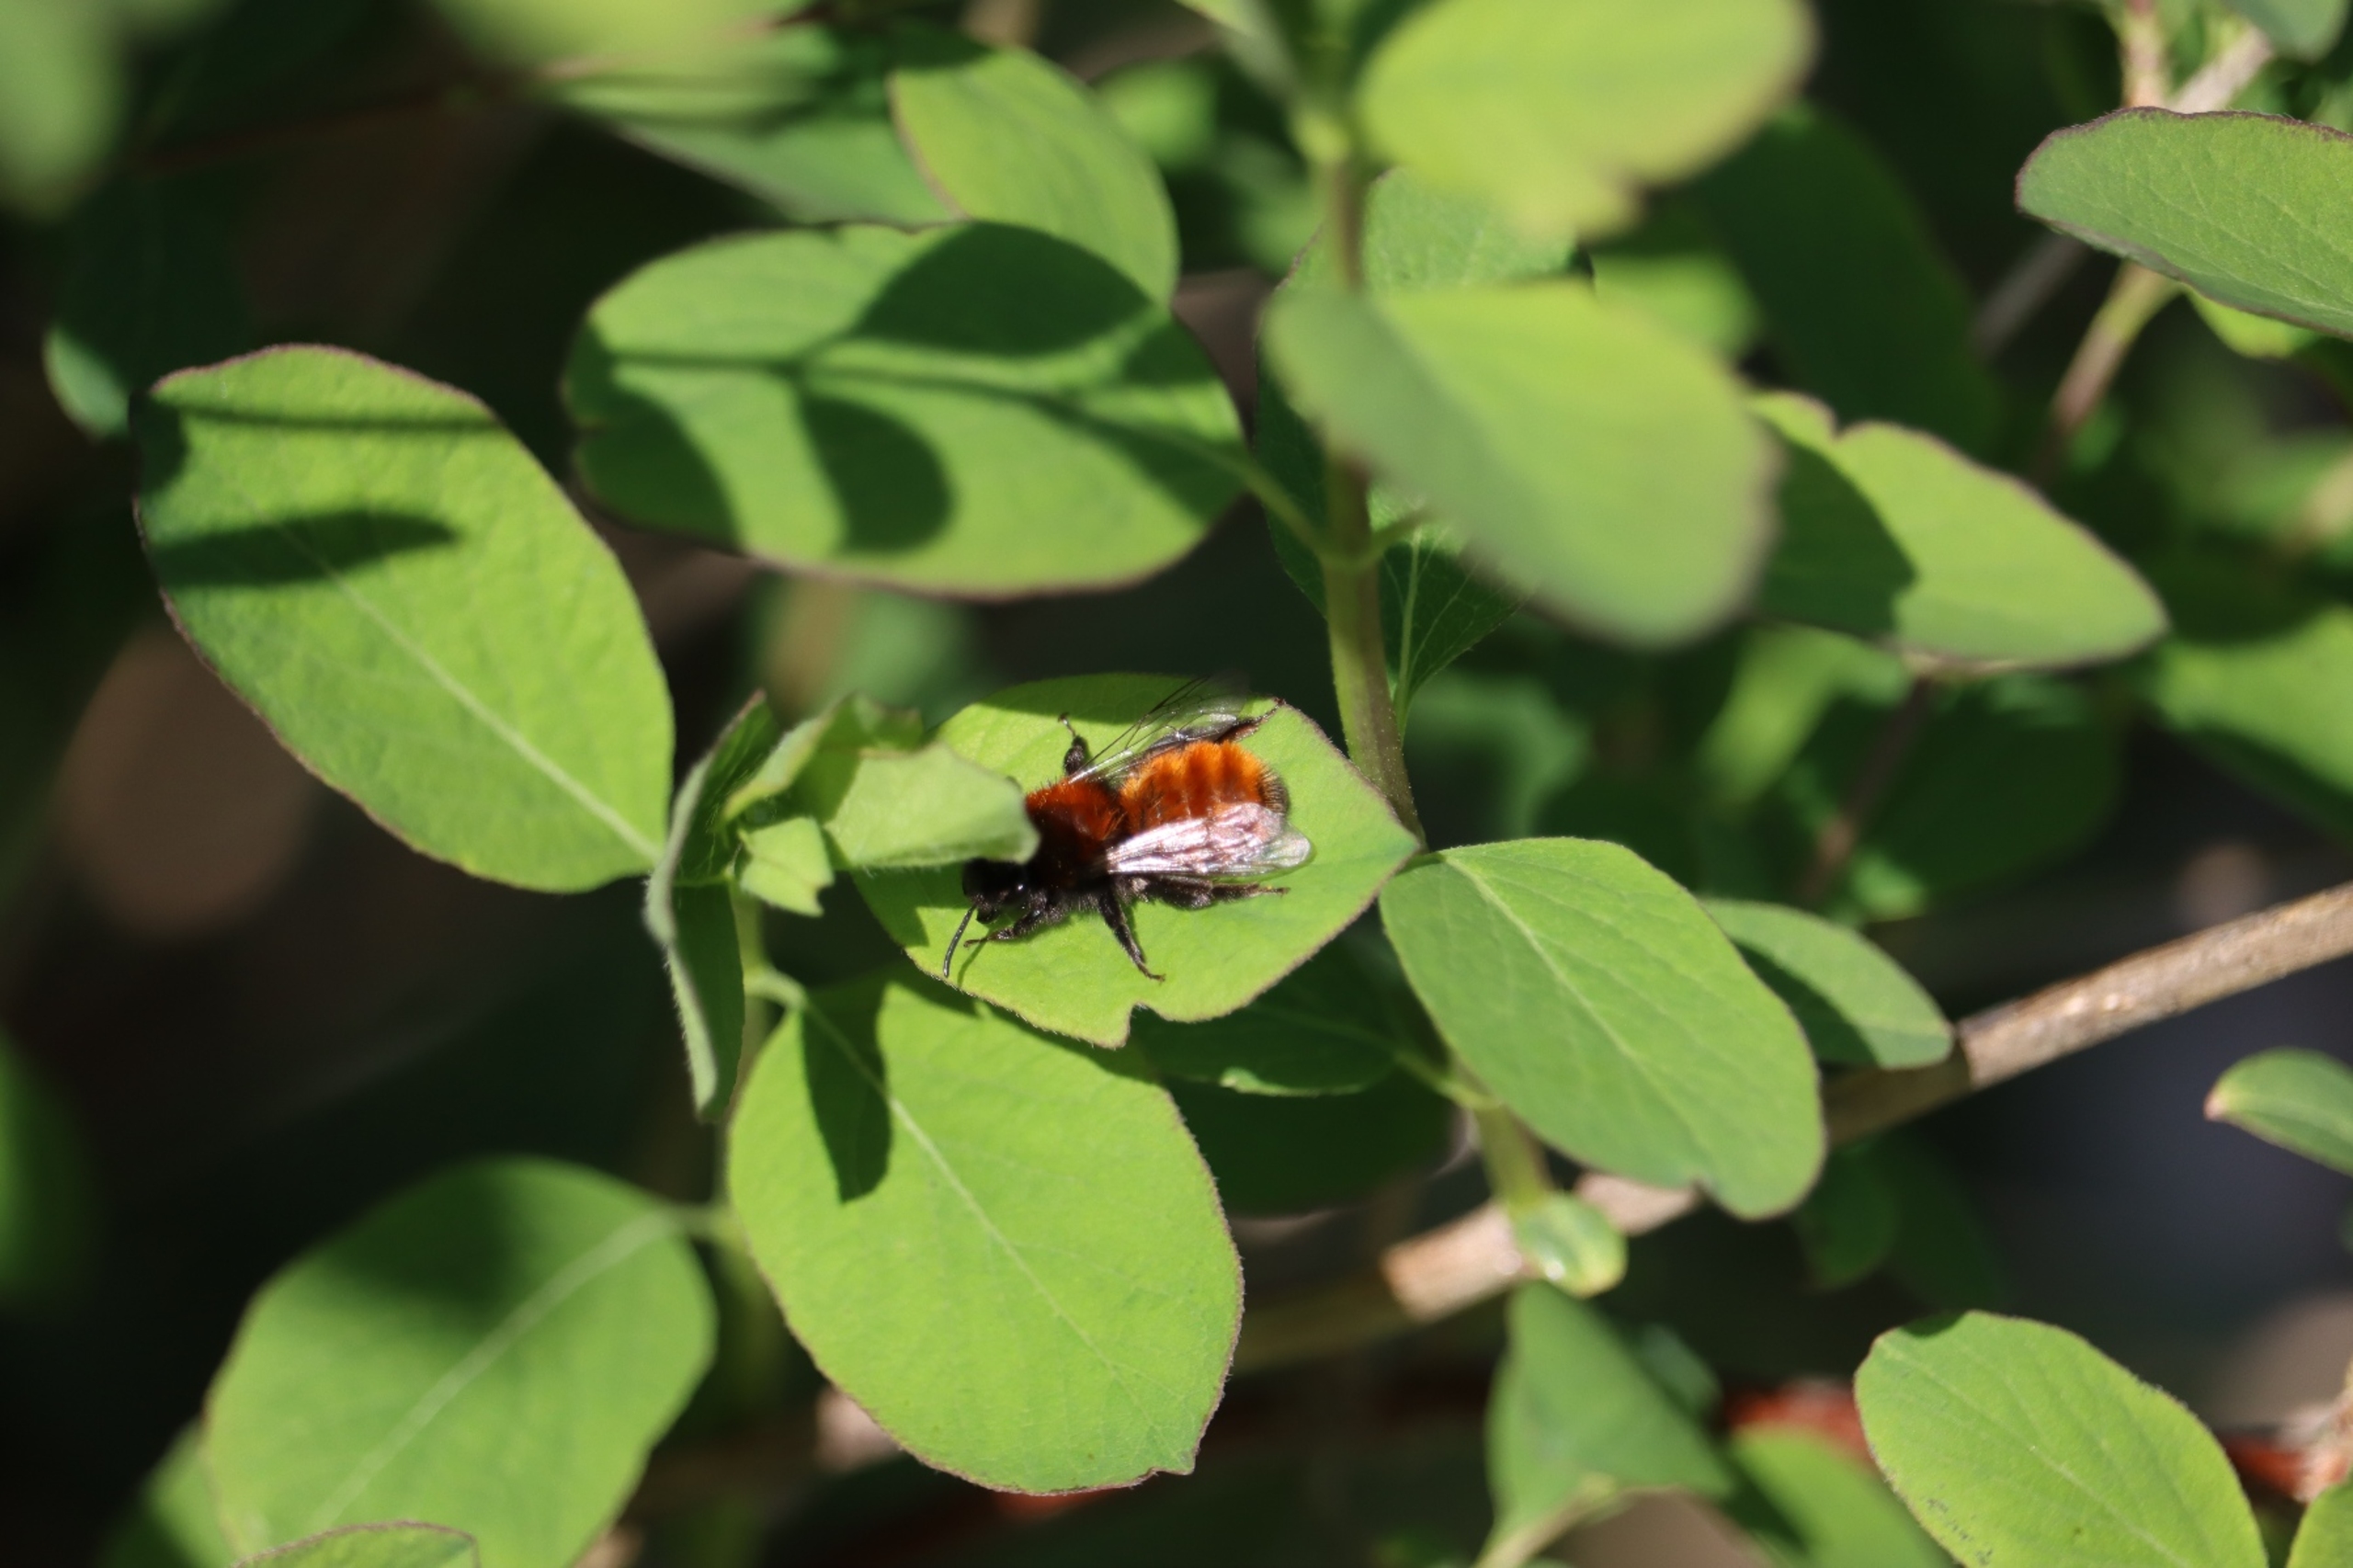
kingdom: Animalia
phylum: Arthropoda
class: Insecta
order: Hymenoptera
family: Andrenidae
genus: Andrena
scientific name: Andrena fulva
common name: Rødpelset jordbi
